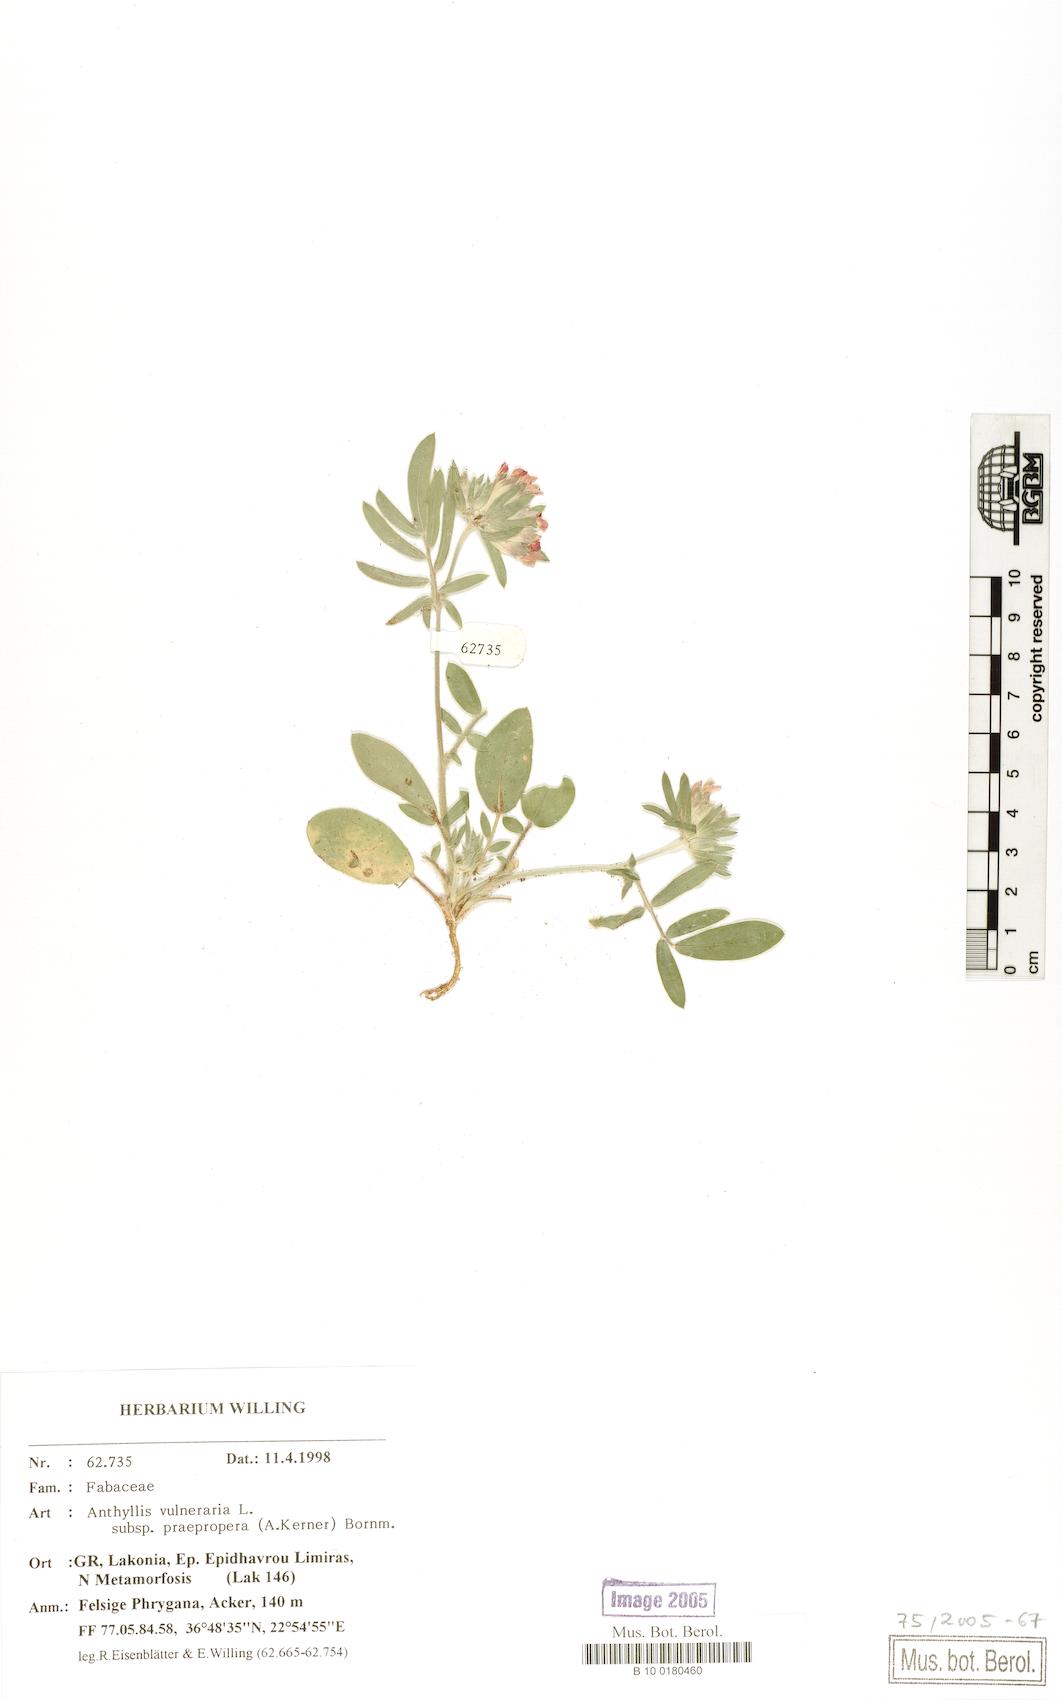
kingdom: Plantae
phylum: Tracheophyta
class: Magnoliopsida
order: Fabales
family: Fabaceae
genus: Anthyllis
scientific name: Anthyllis vulneraria
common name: Kidney vetch
